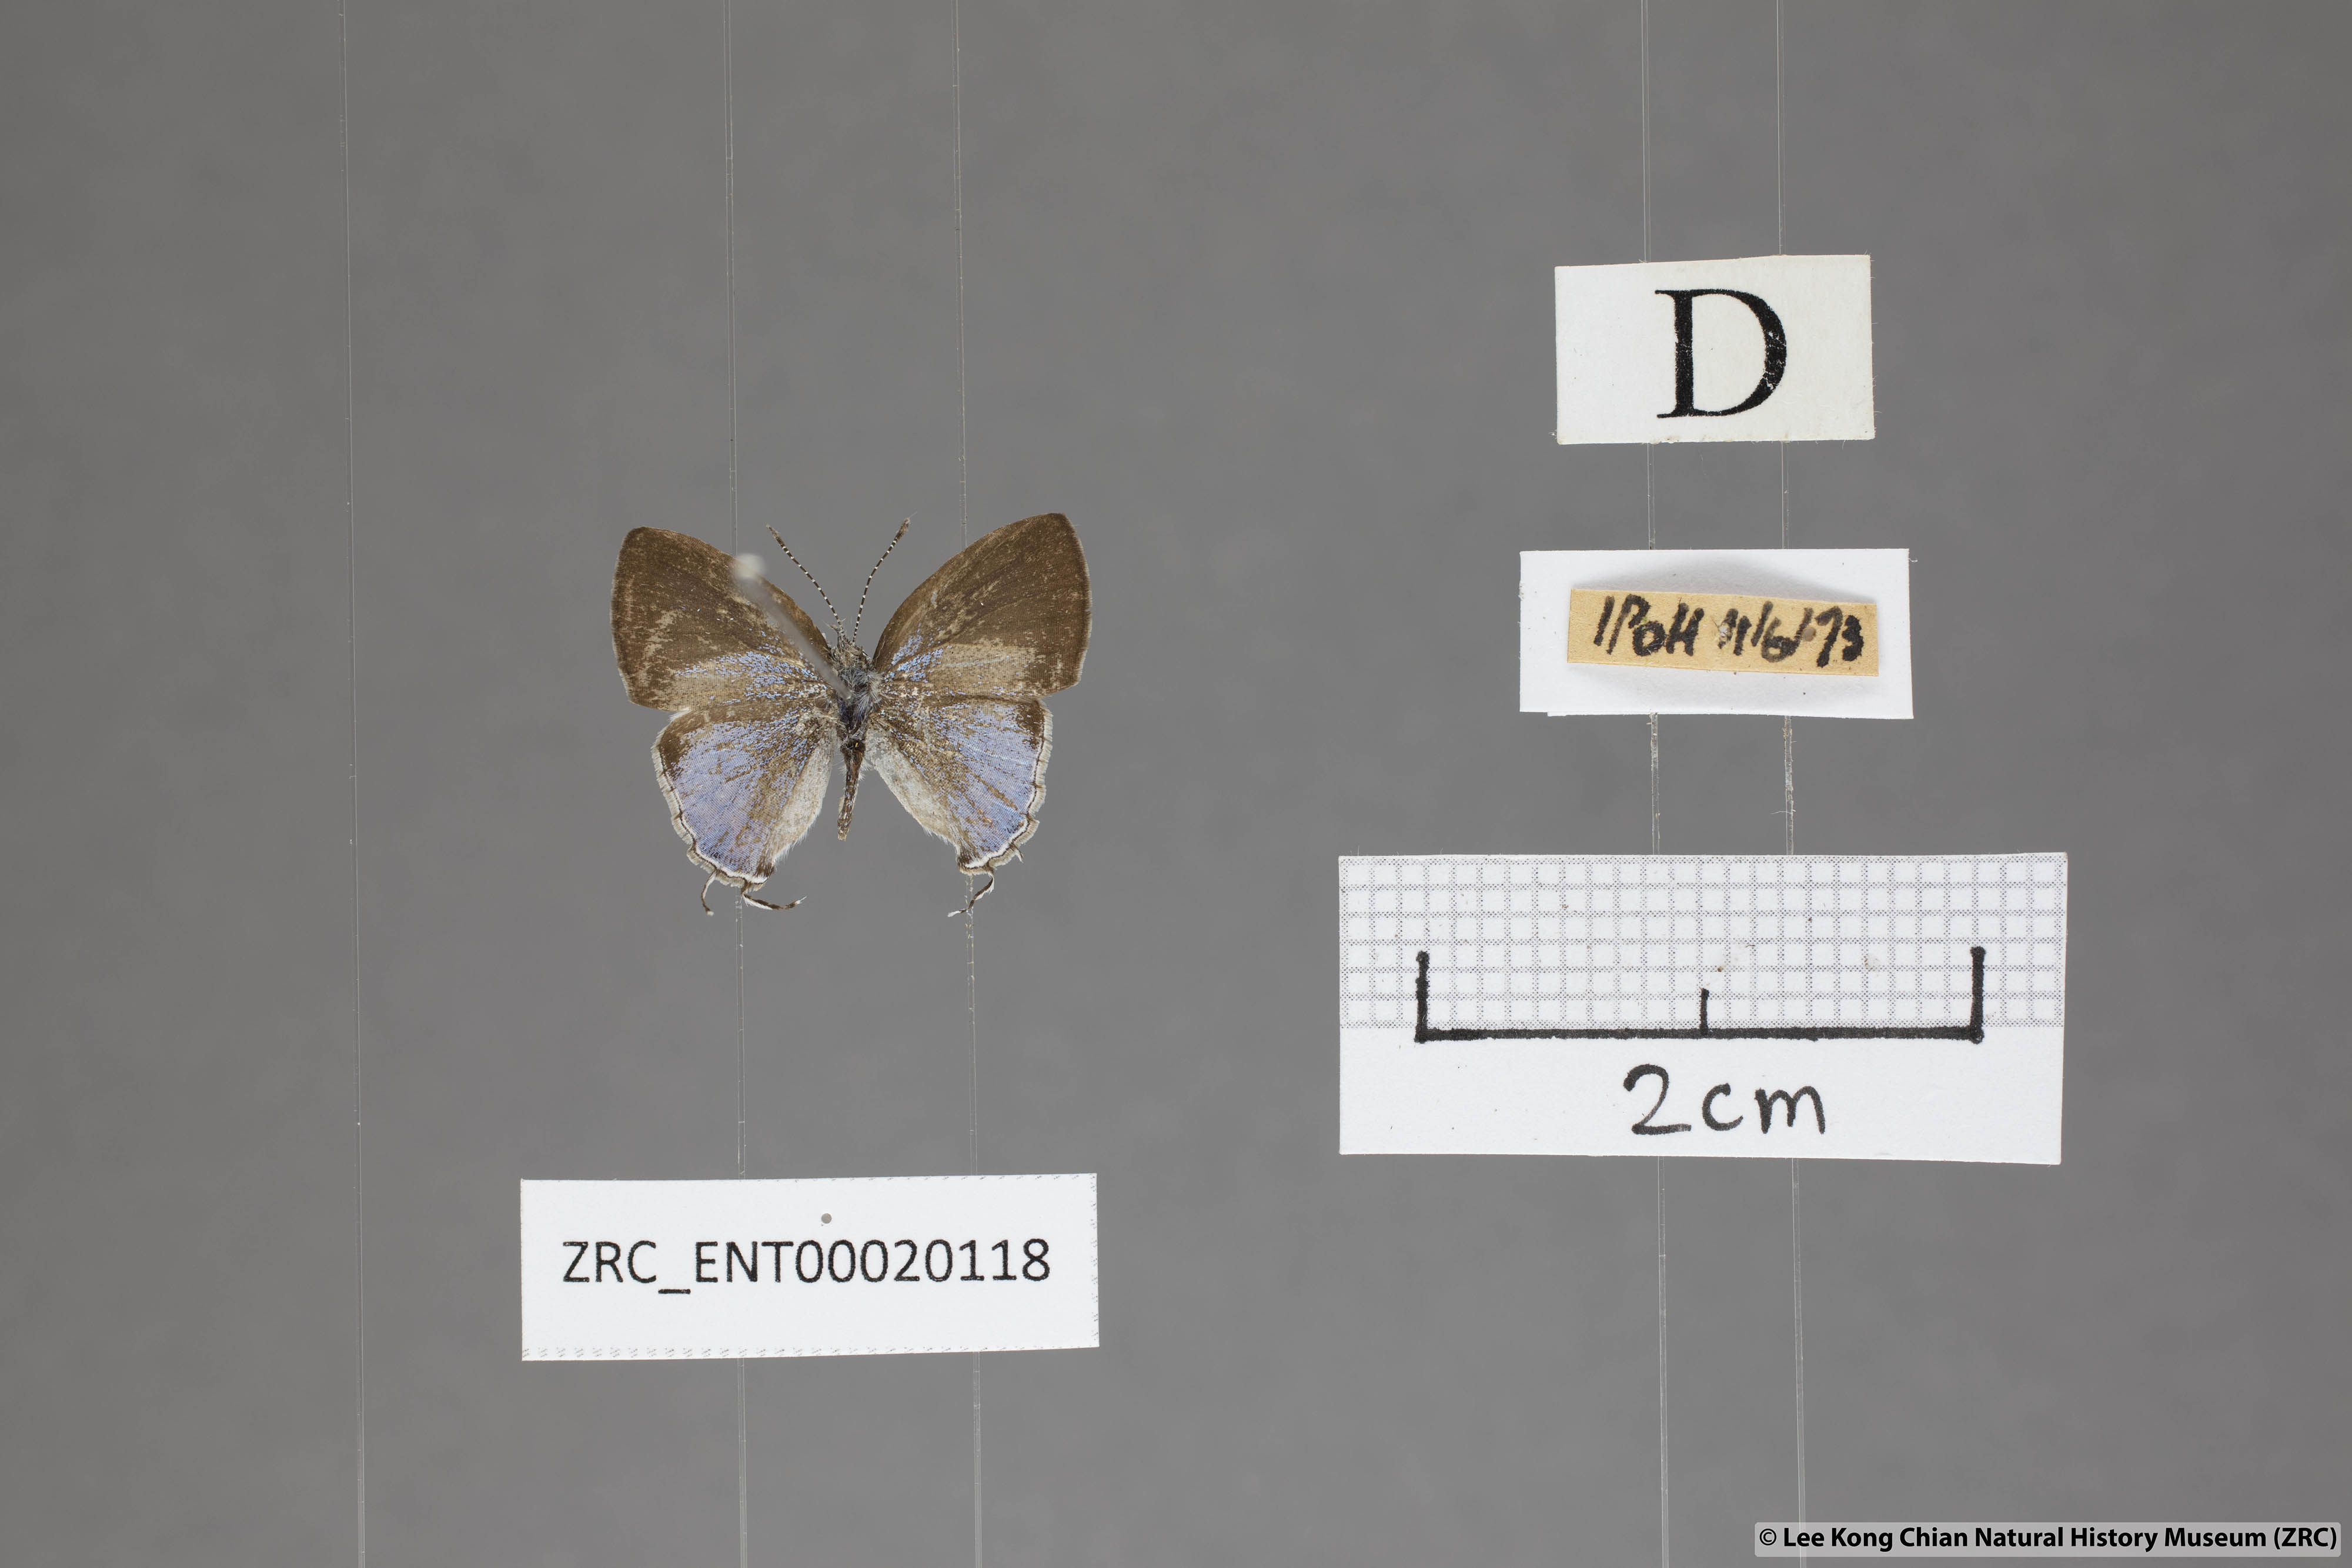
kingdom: Animalia
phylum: Arthropoda
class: Insecta
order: Lepidoptera
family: Lycaenidae
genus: Chliaria
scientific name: Chliaria othona
